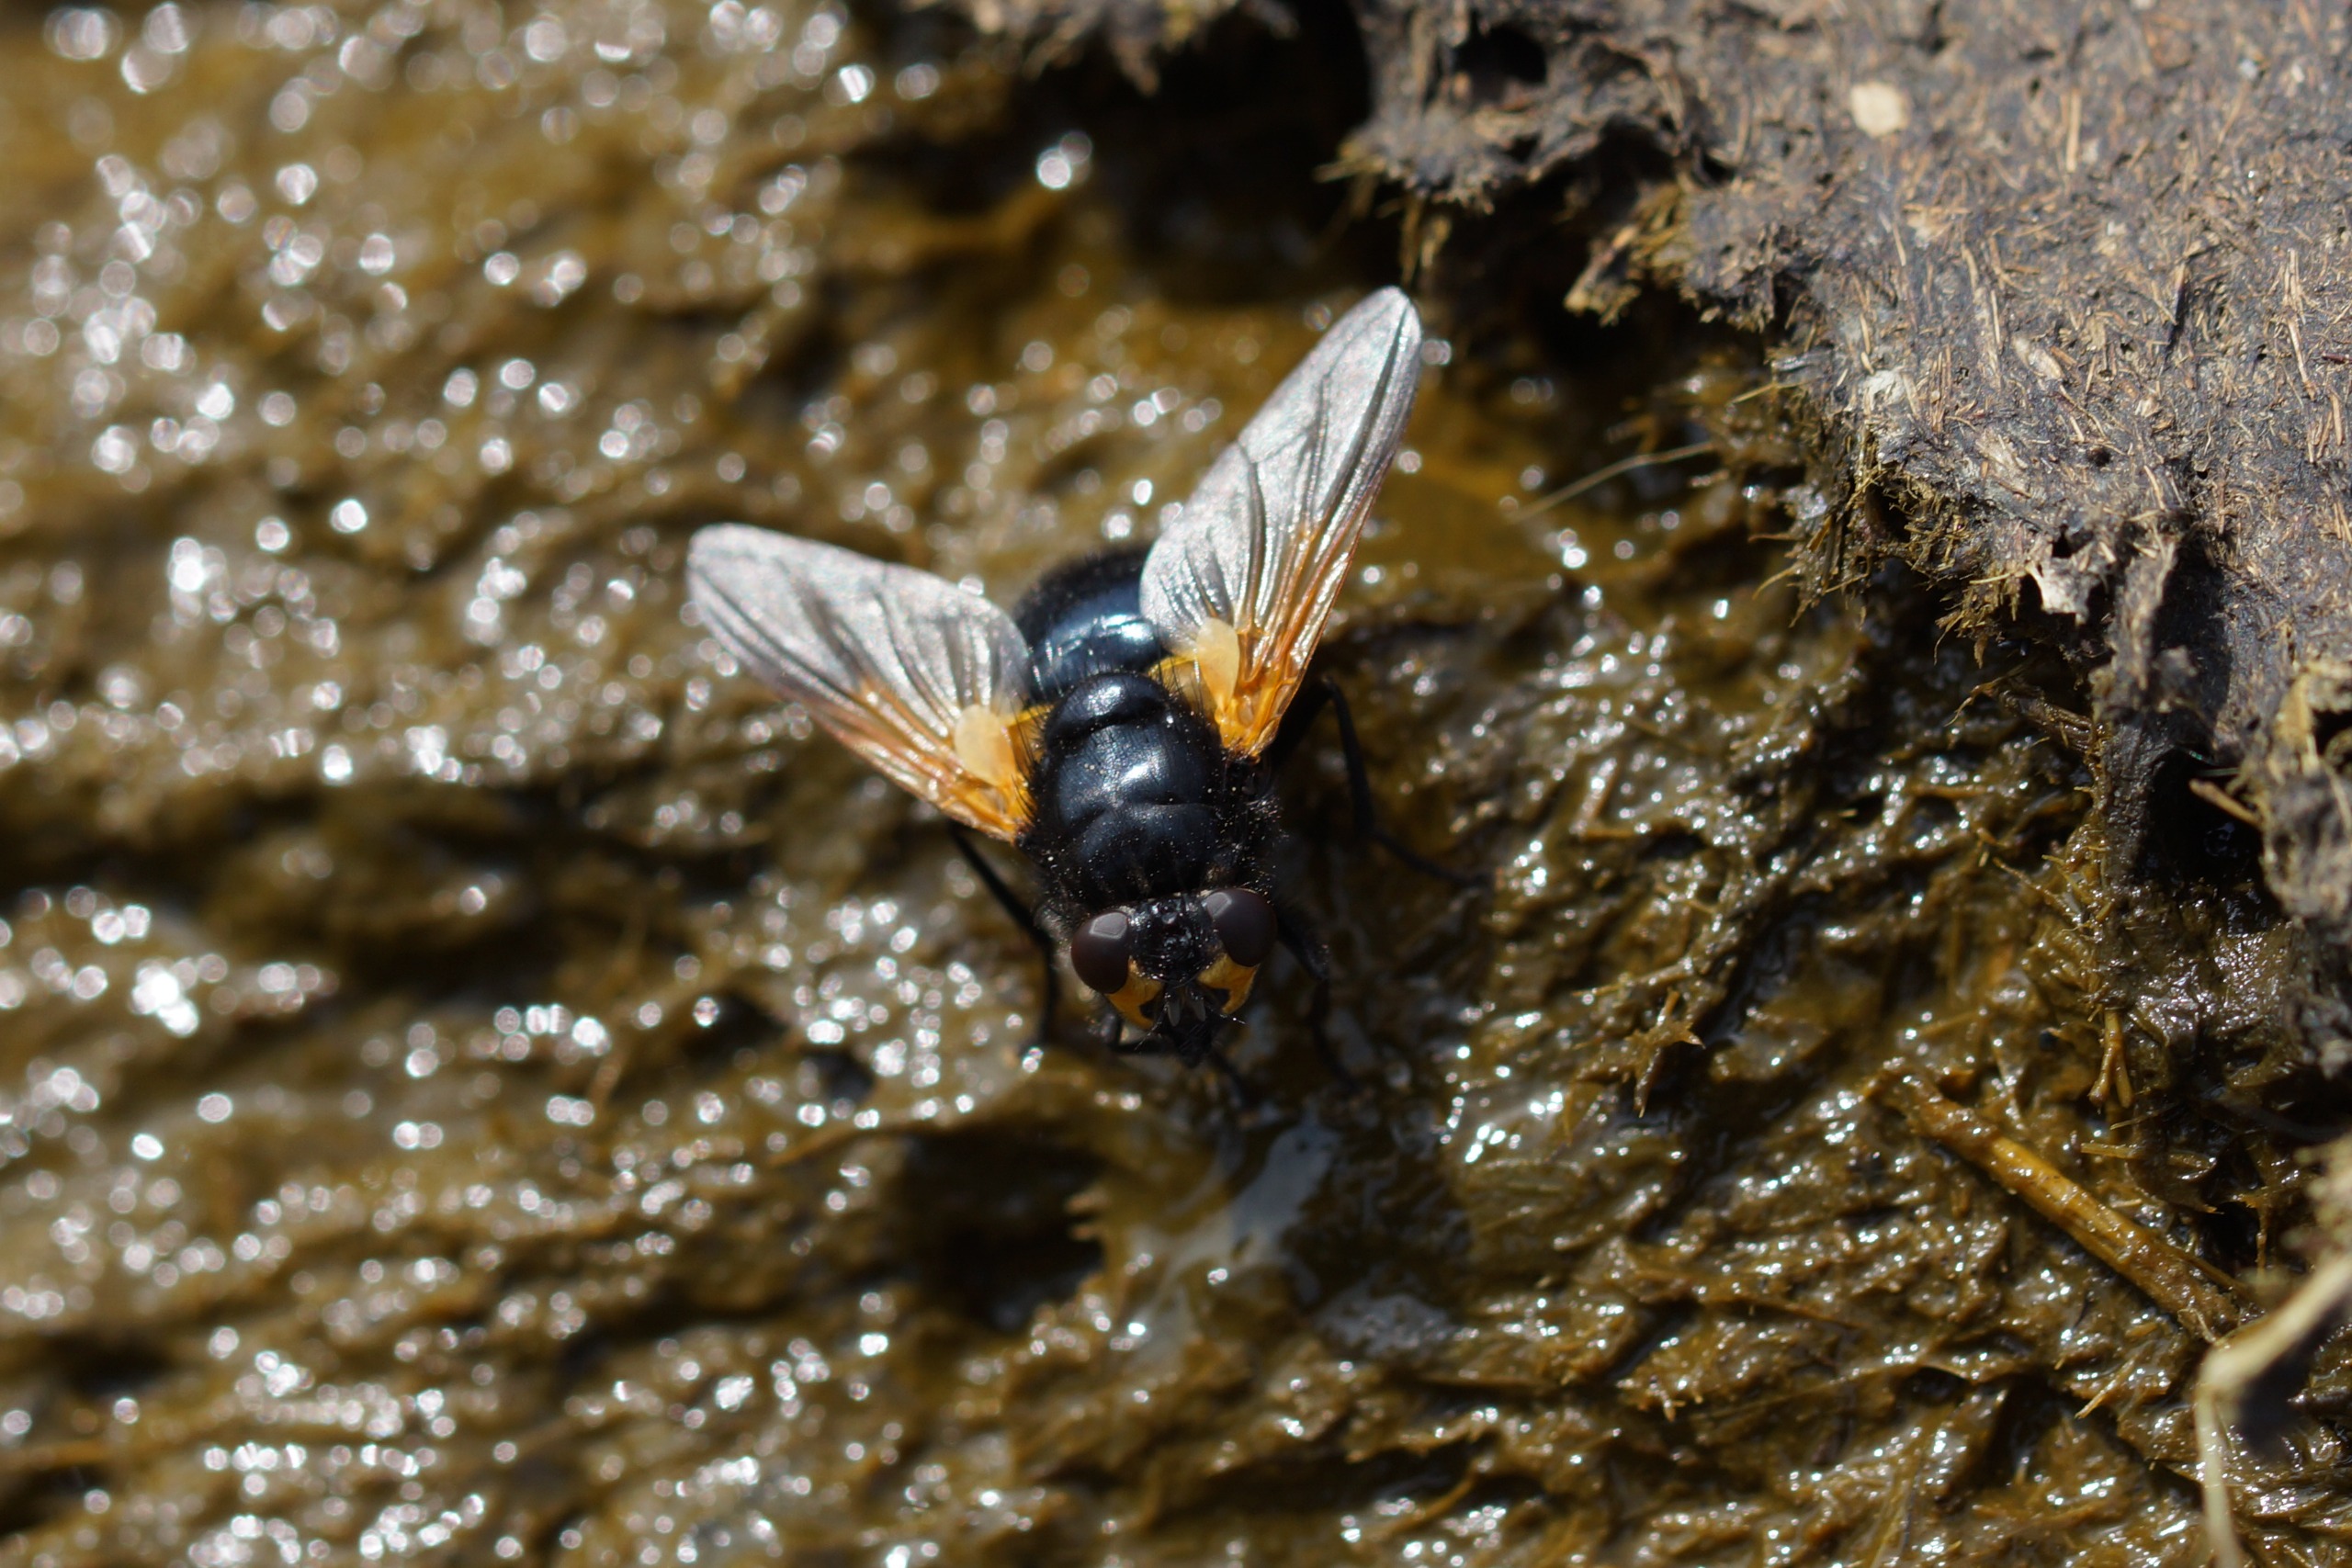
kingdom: Animalia
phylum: Arthropoda
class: Insecta
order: Diptera
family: Muscidae
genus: Mesembrina
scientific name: Mesembrina meridiana
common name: Gulvinget flue
